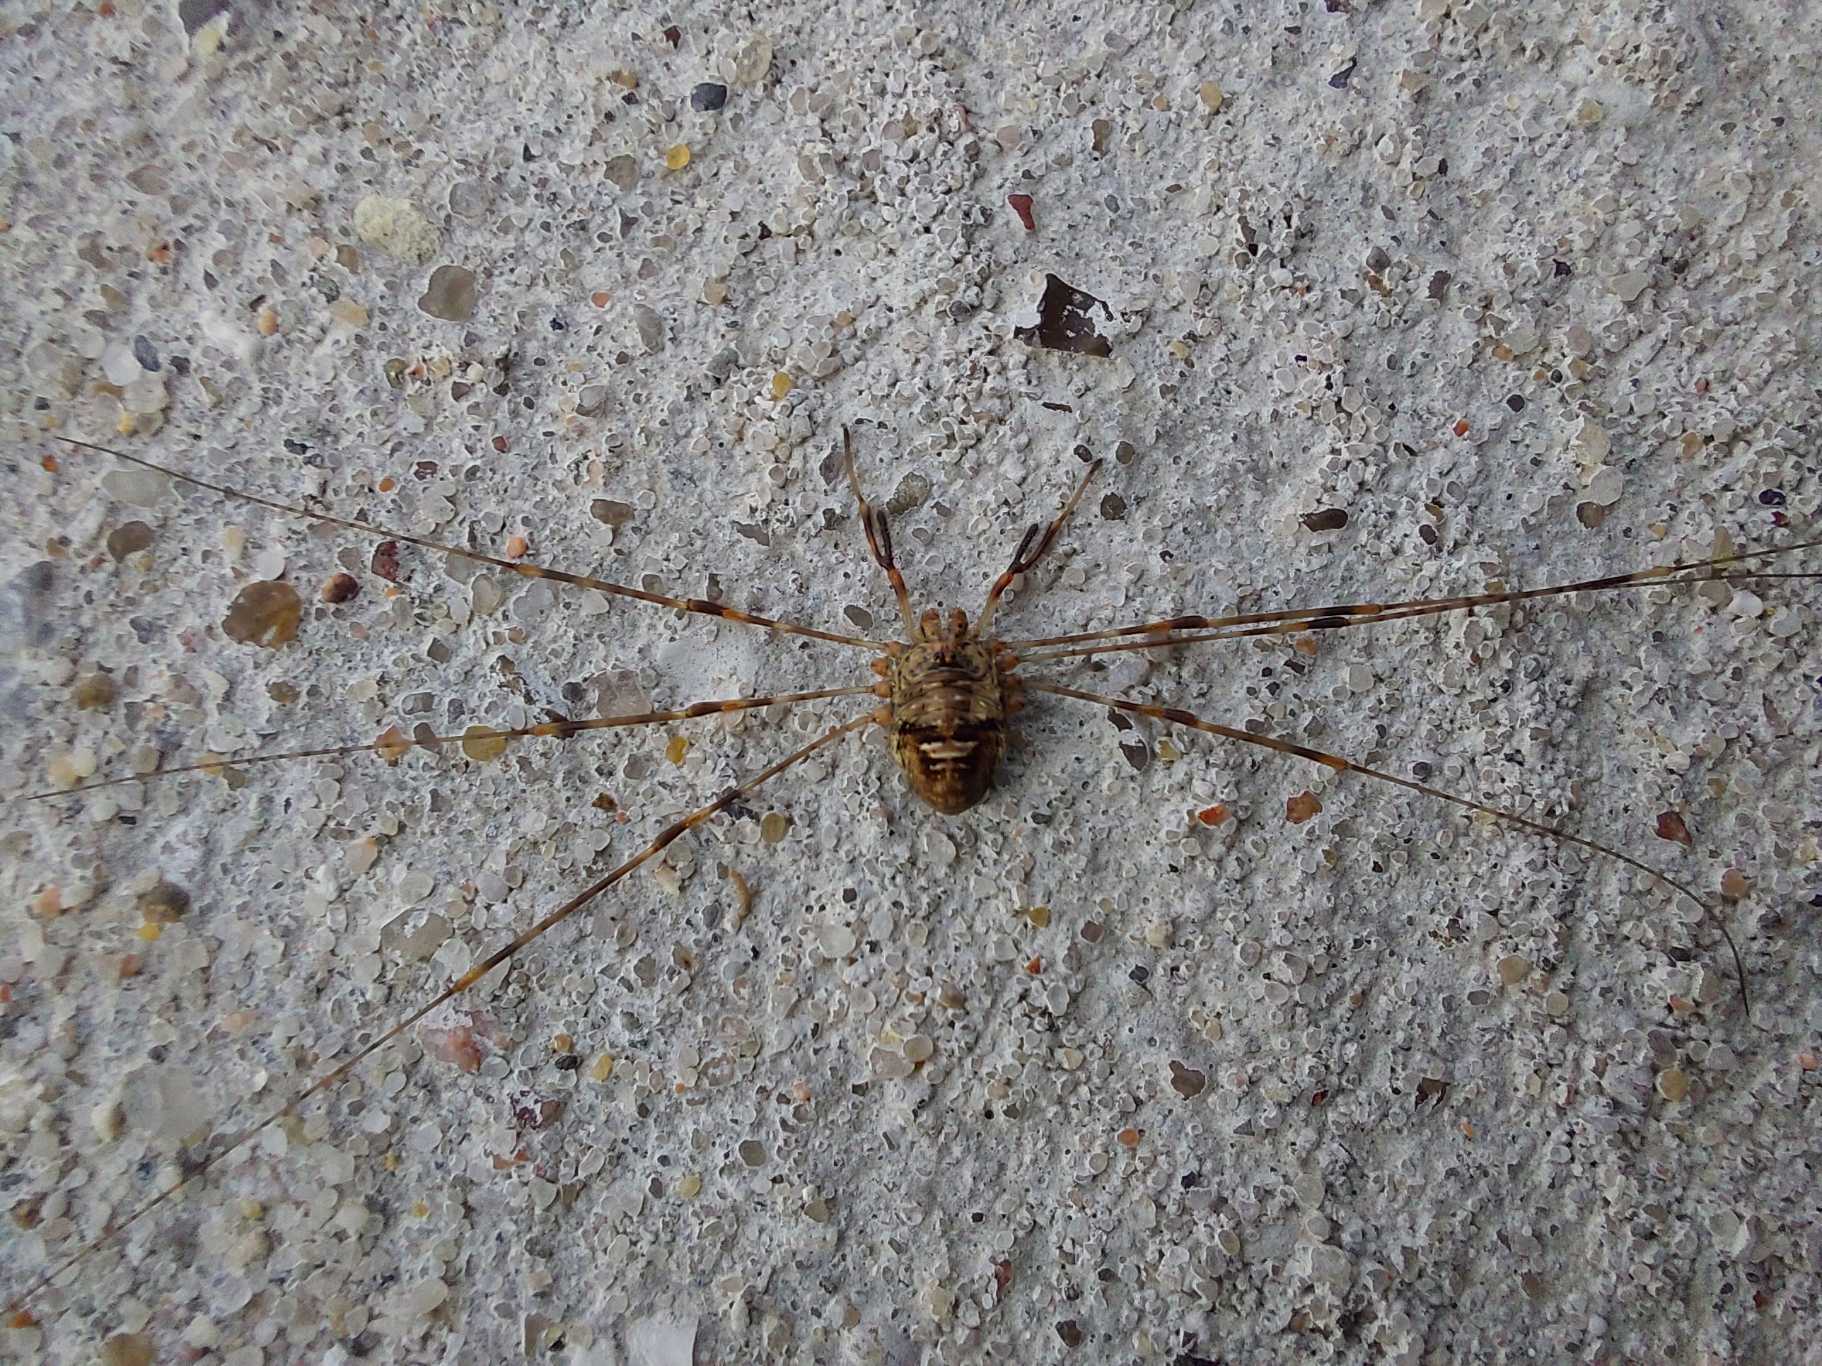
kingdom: Animalia
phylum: Arthropoda
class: Arachnida
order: Opiliones
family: Phalangiidae
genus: Dicranopalpus
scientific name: Dicranopalpus ramosus
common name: Gaffelmejer
